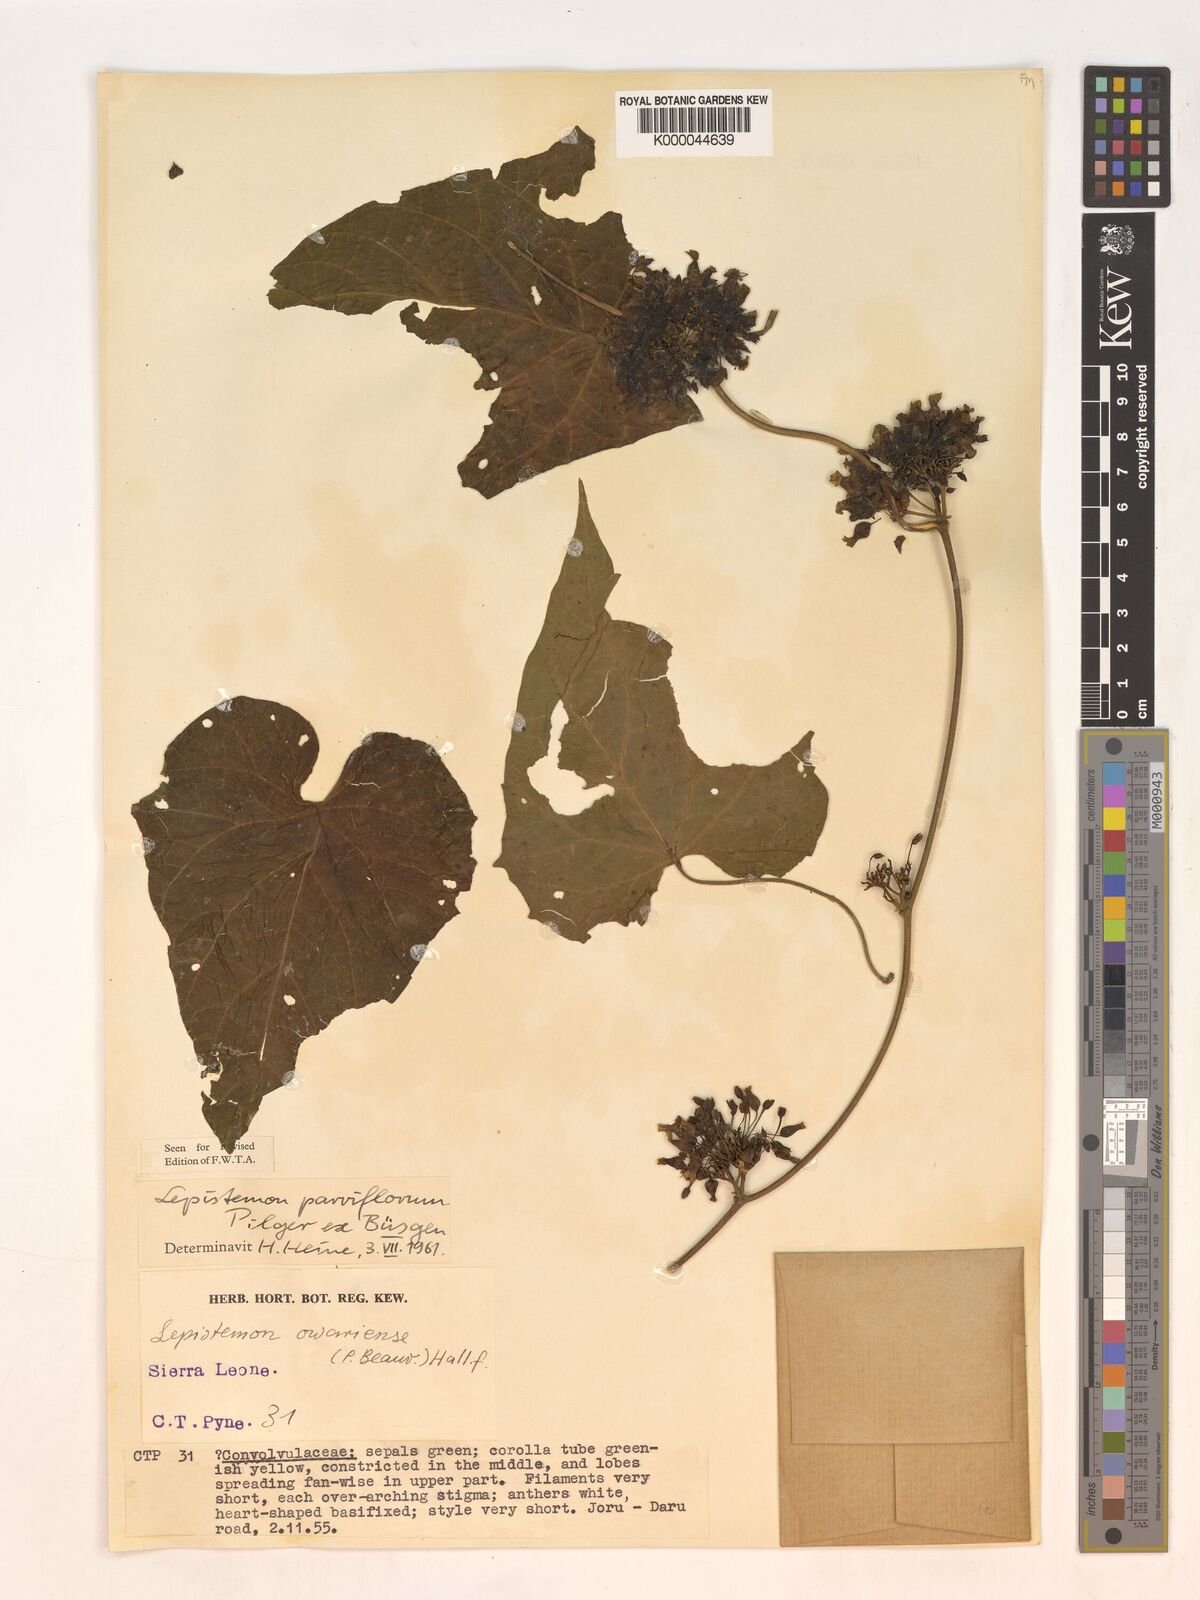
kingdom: Plantae
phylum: Tracheophyta
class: Magnoliopsida
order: Solanales
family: Convolvulaceae
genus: Lepistemon
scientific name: Lepistemon
